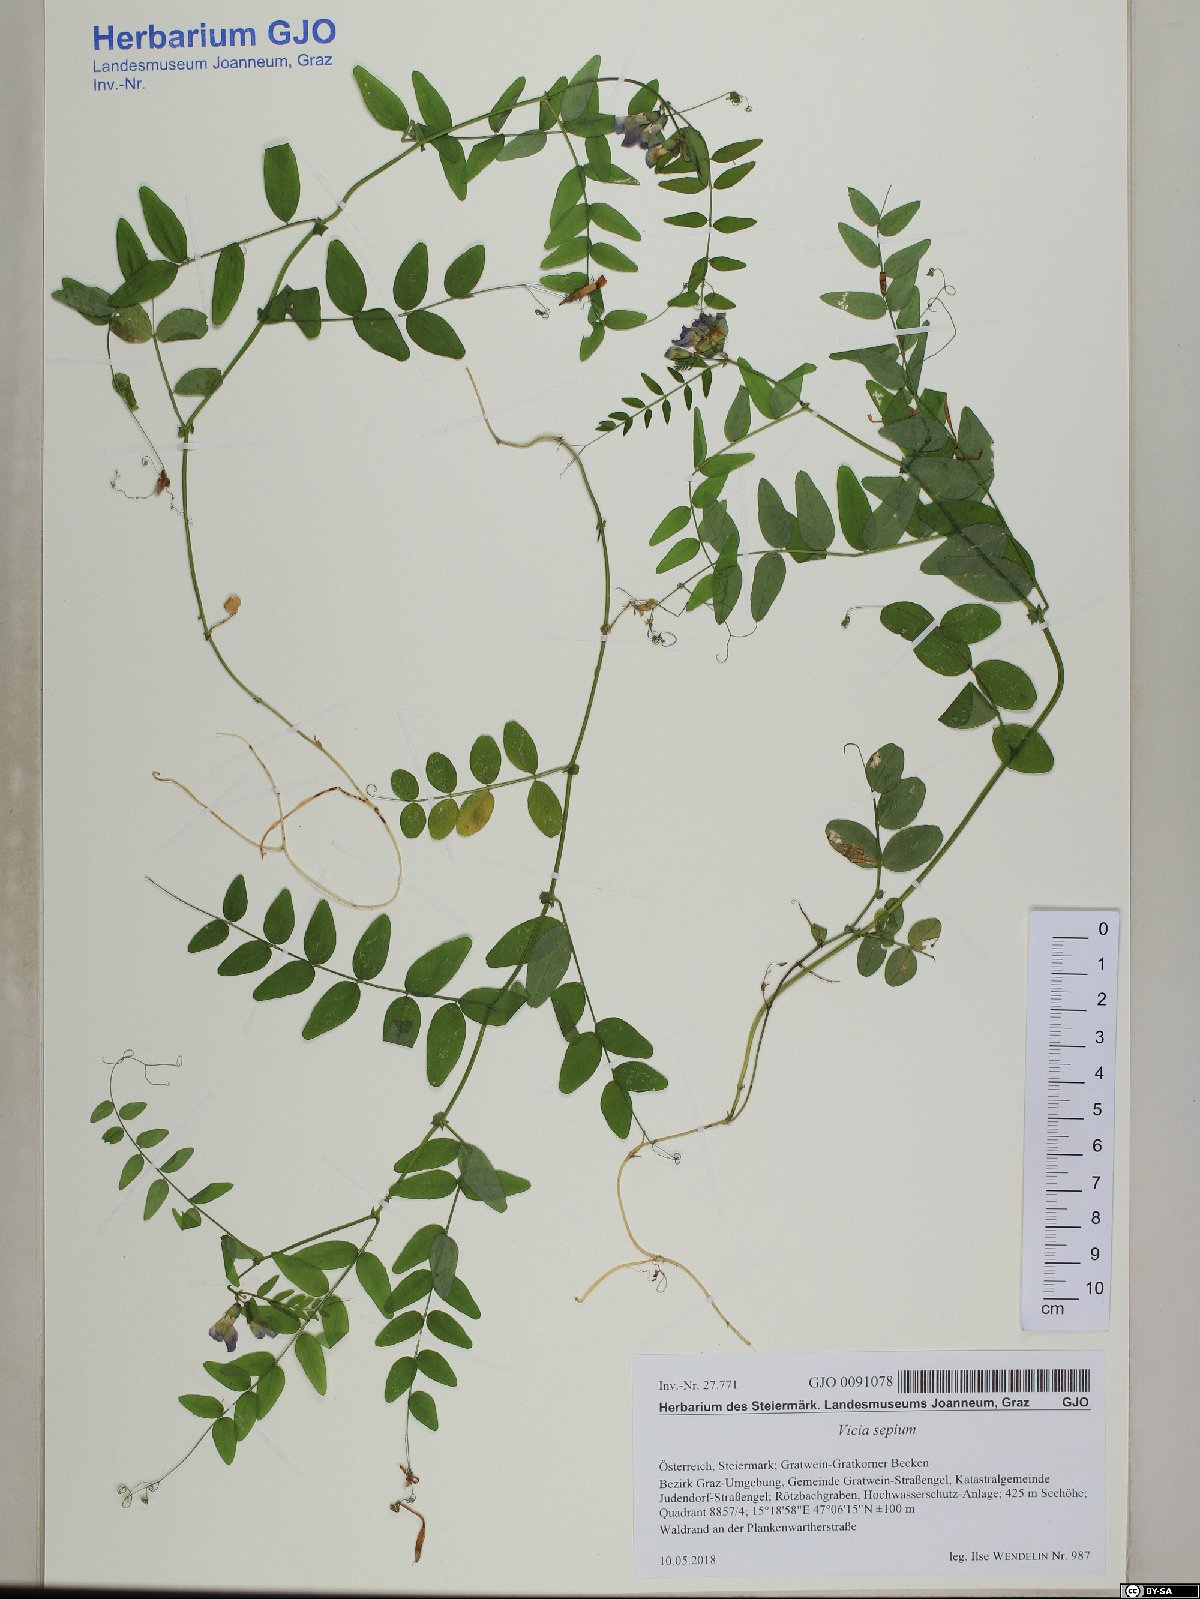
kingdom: Plantae
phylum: Tracheophyta
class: Magnoliopsida
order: Fabales
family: Fabaceae
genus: Vicia
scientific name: Vicia sepium
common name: Bush vetch
